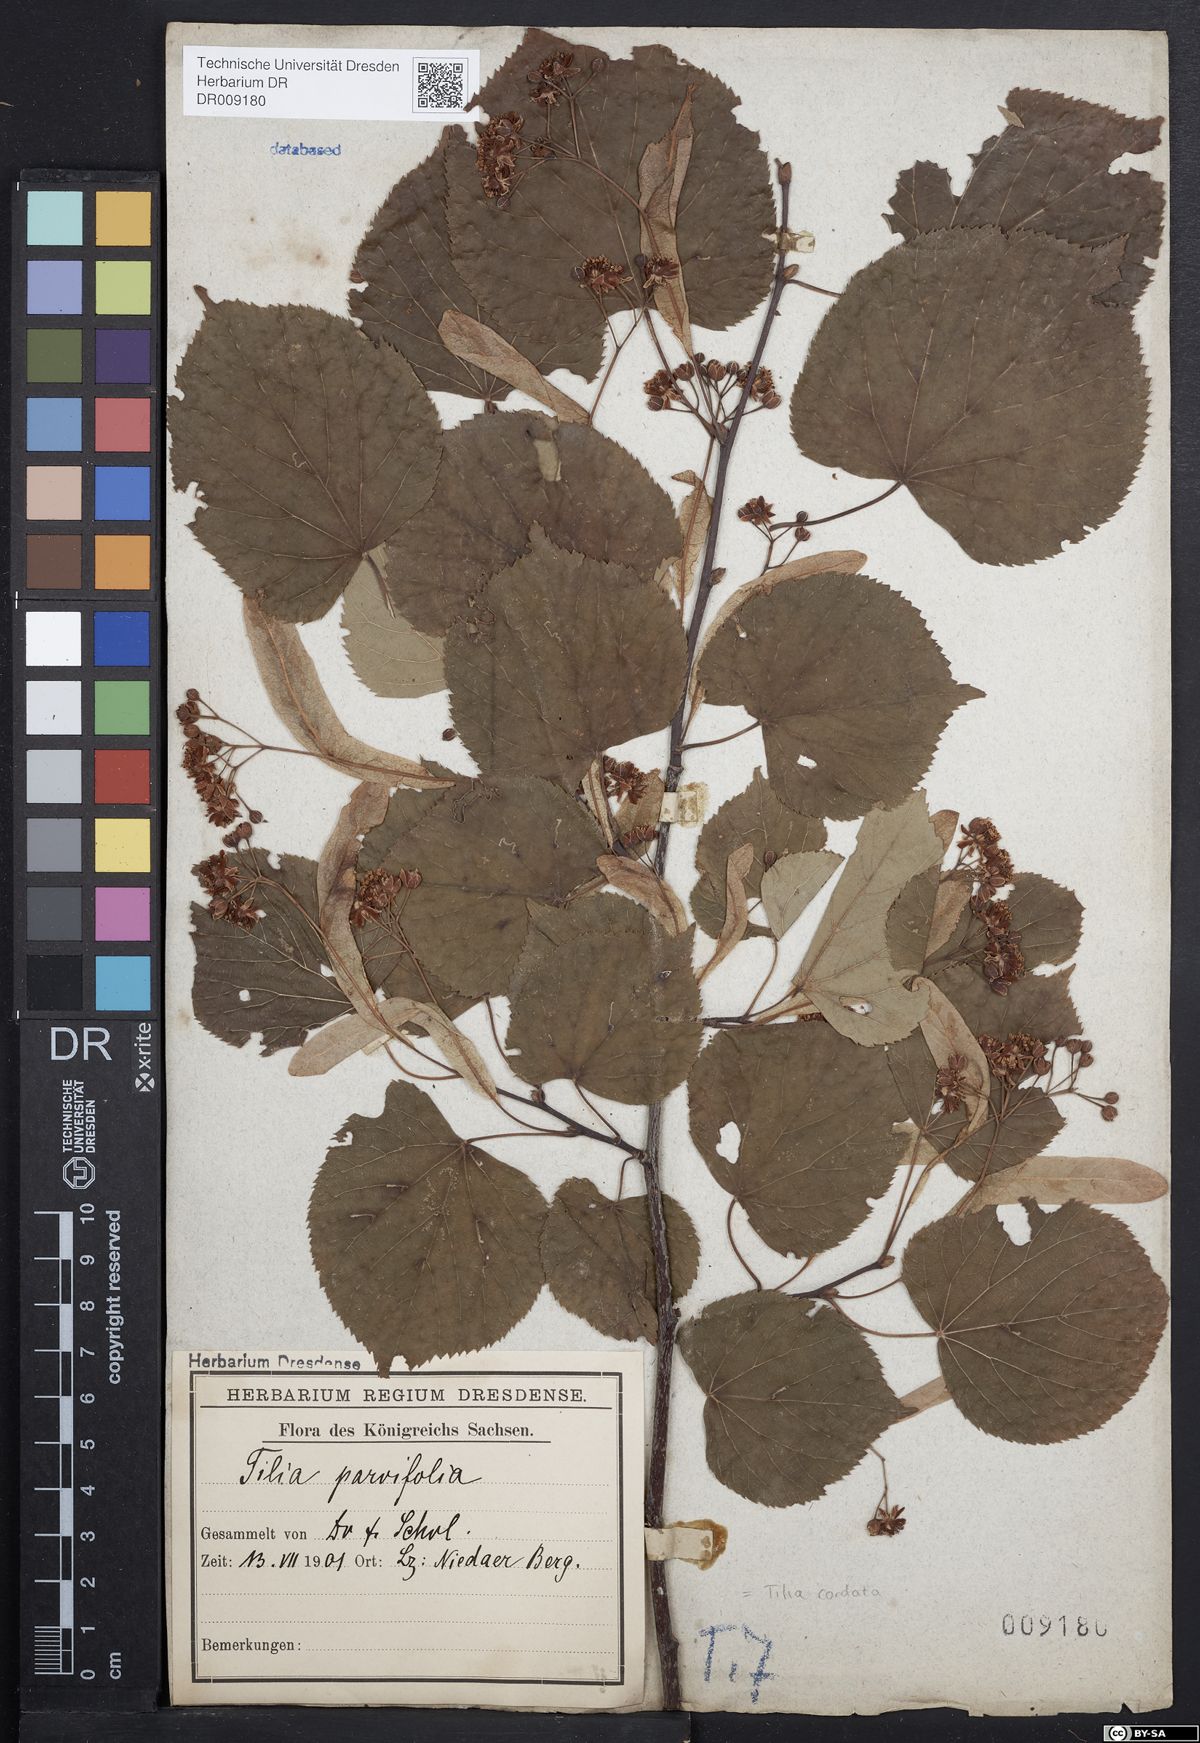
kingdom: Plantae
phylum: Tracheophyta
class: Magnoliopsida
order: Malvales
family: Malvaceae
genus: Tilia
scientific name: Tilia cordata
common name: Small-leaved lime
